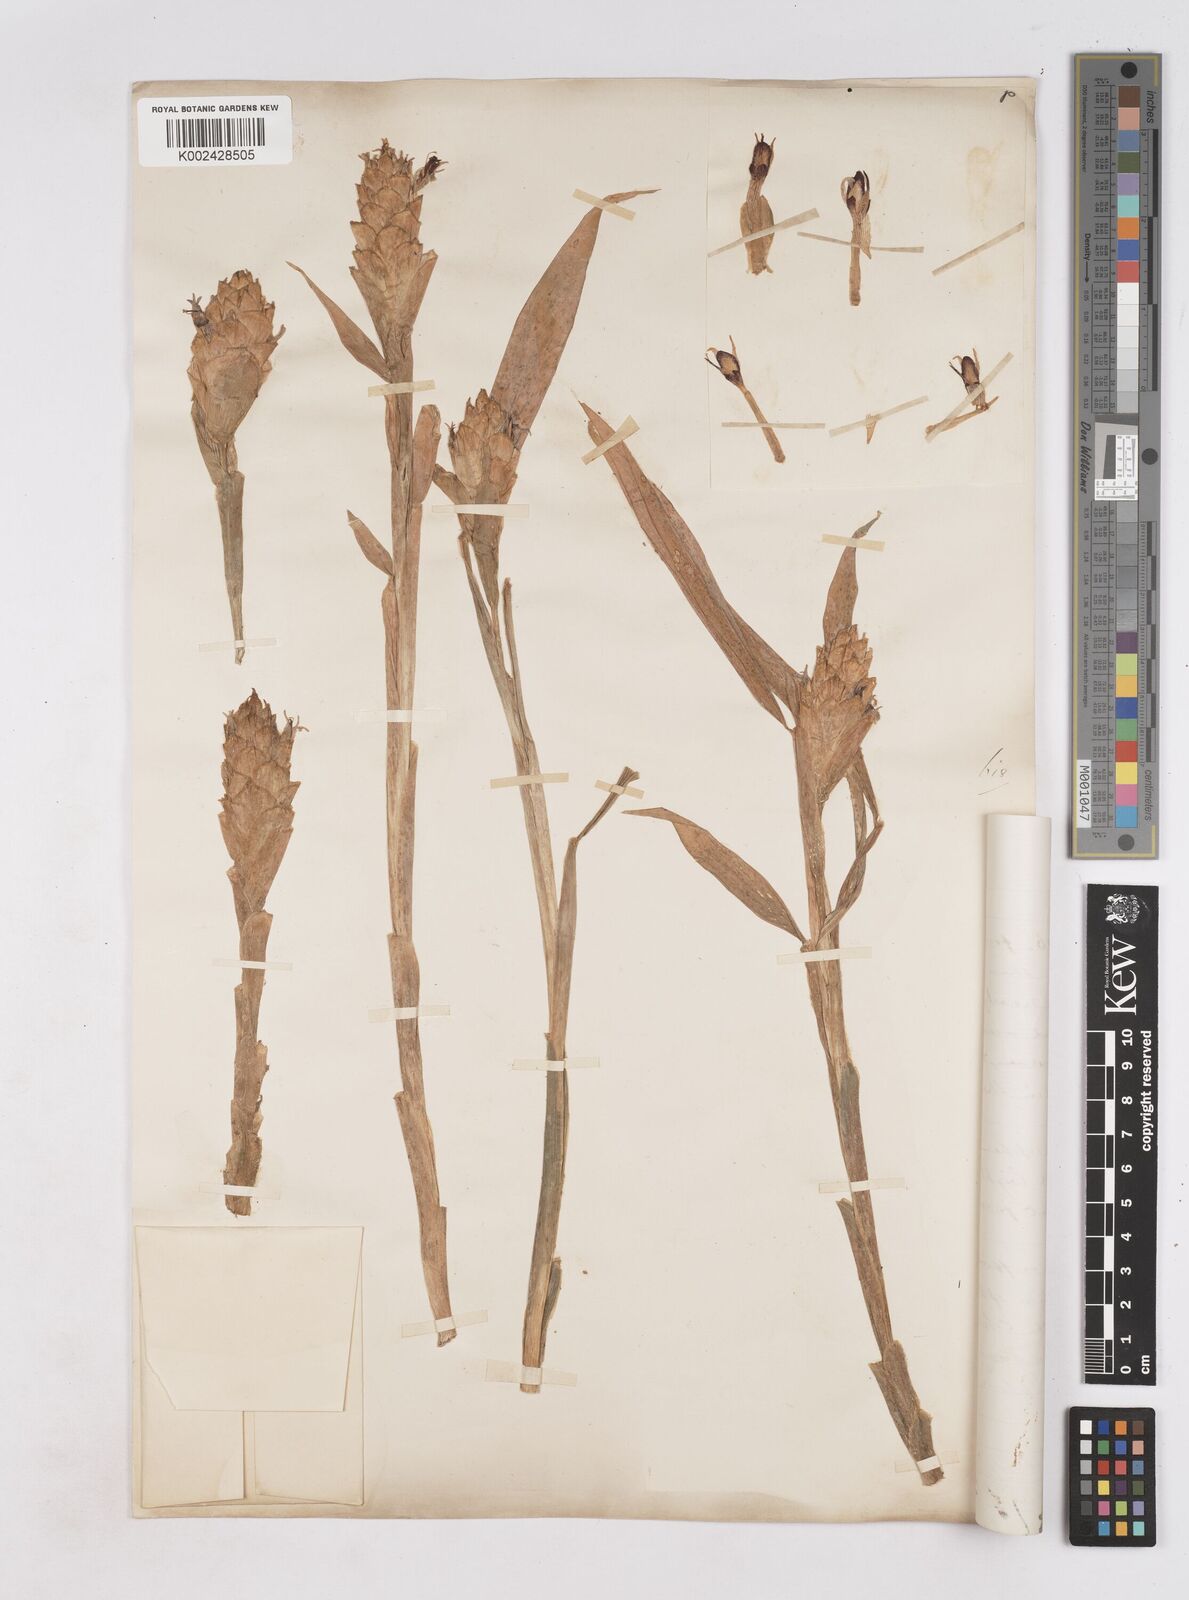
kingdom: Plantae
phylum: Tracheophyta
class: Liliopsida
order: Zingiberales
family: Zingiberaceae
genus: Zingiber
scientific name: Zingiber officinale
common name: Ginger
